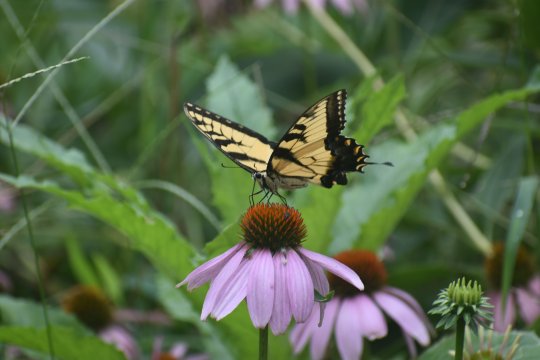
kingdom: Animalia
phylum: Arthropoda
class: Insecta
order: Lepidoptera
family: Papilionidae
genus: Pterourus
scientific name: Pterourus glaucus
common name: Eastern Tiger Swallowtail
